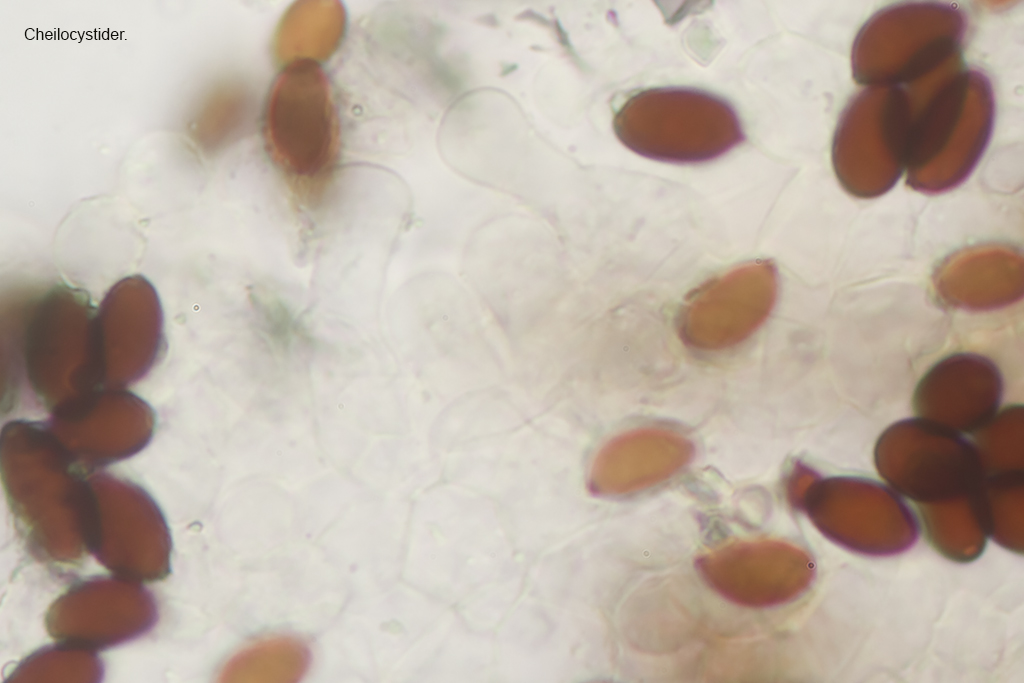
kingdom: Fungi
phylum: Basidiomycota
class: Agaricomycetes
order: Agaricales
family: Psathyrellaceae
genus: Coprinopsis
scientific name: Coprinopsis marcescibilis
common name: ruderat-blækhat
